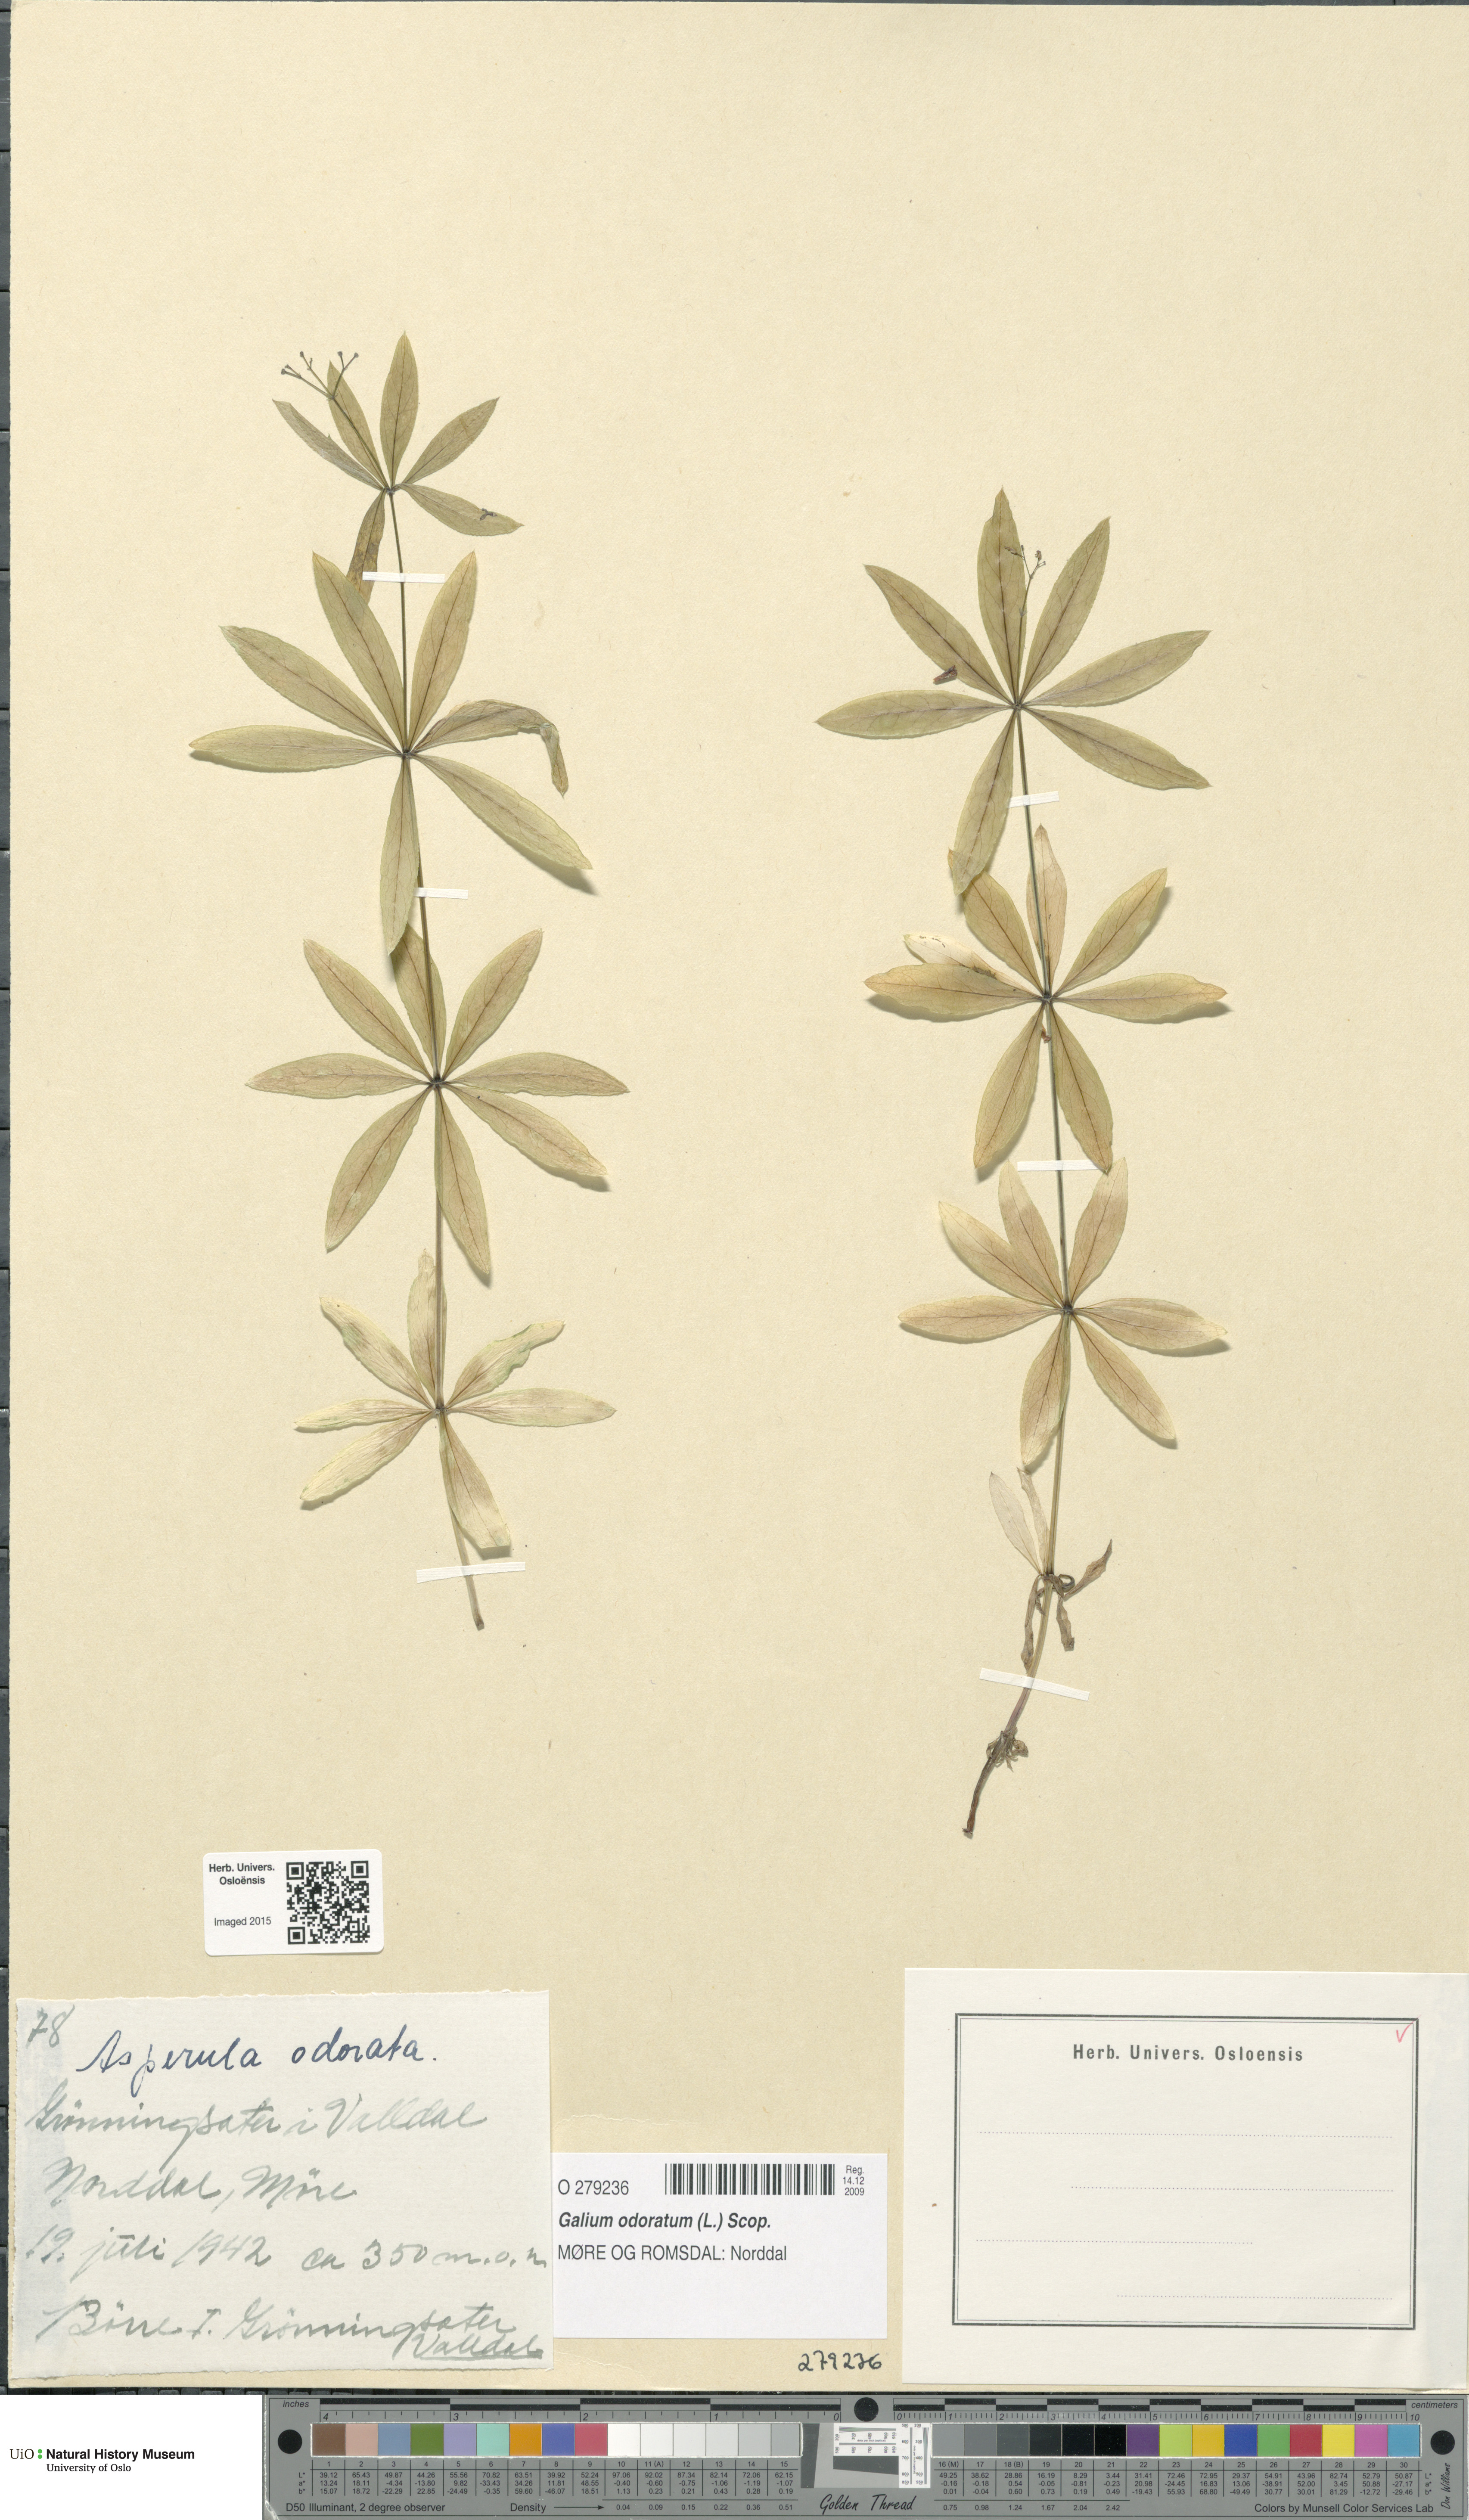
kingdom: Plantae
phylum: Tracheophyta
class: Magnoliopsida
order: Gentianales
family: Rubiaceae
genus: Galium
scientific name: Galium odoratum
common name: Sweet woodruff
